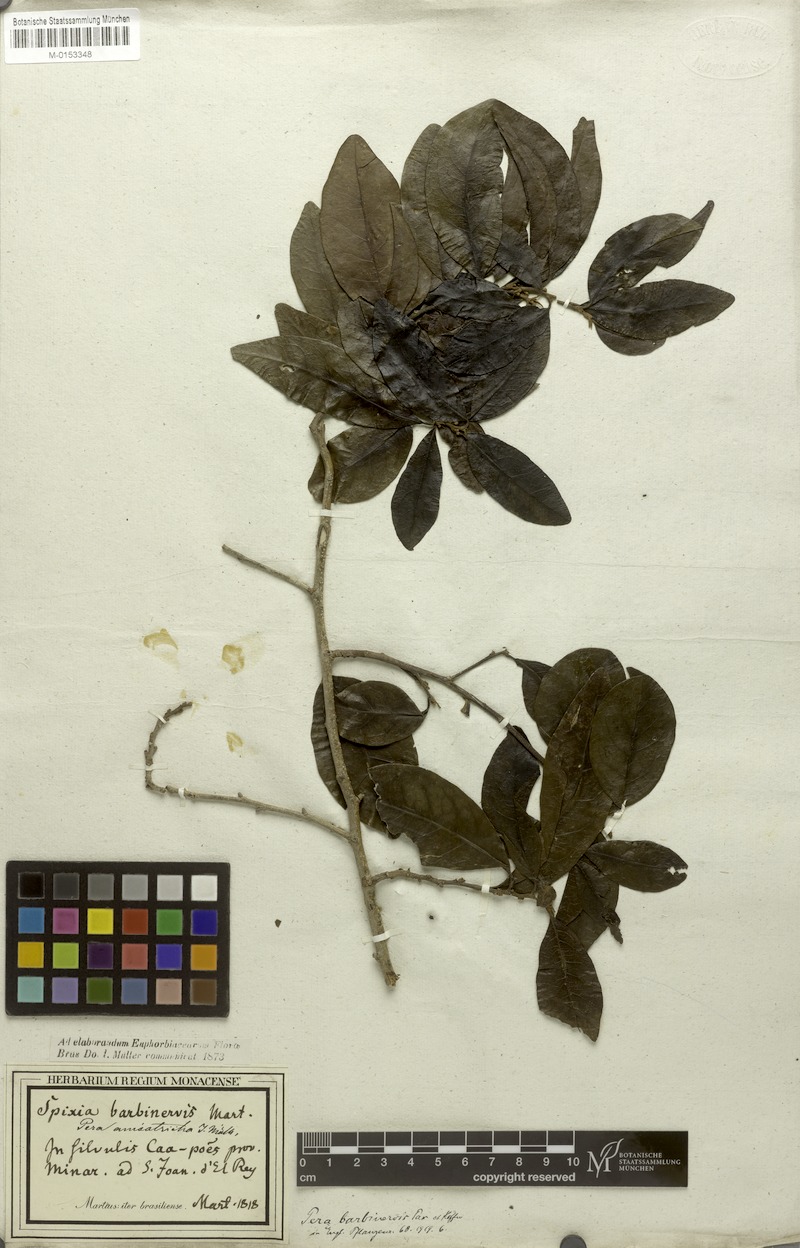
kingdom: Plantae
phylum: Tracheophyta
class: Magnoliopsida
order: Malpighiales
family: Peraceae
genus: Pera
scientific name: Pera anisotricha
